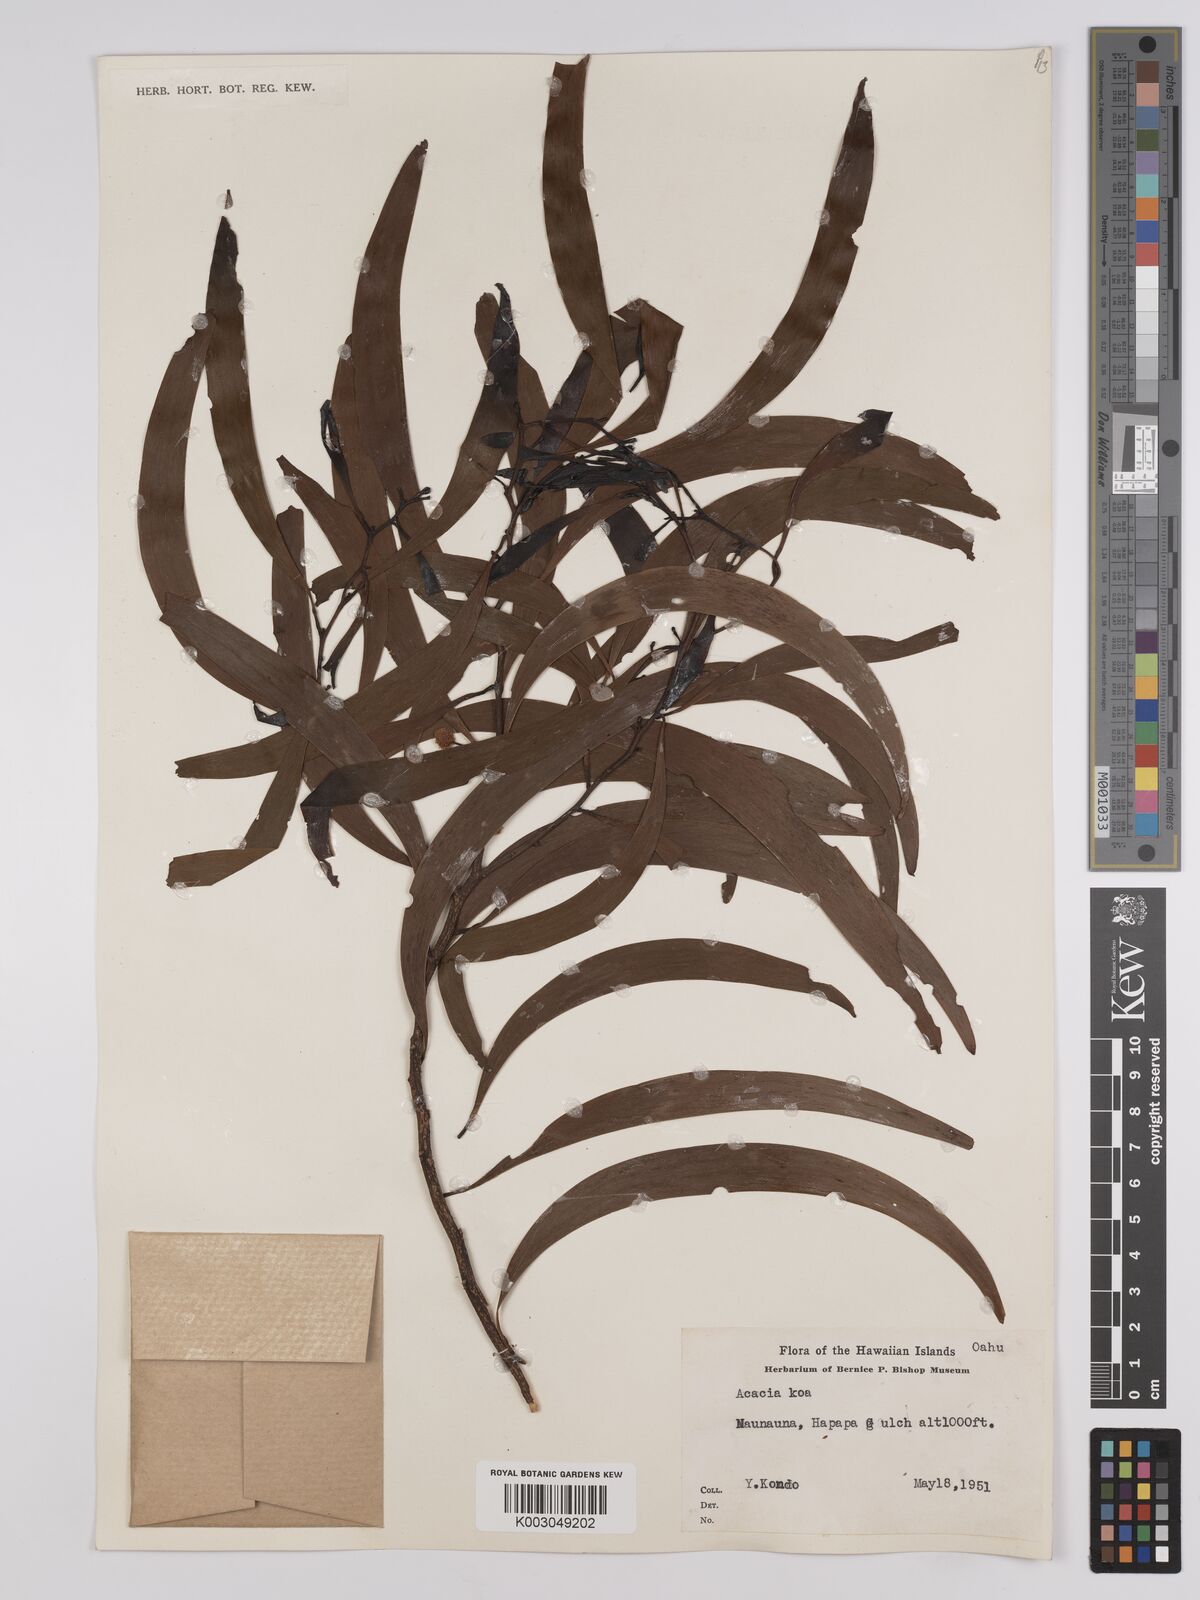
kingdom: Plantae
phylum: Tracheophyta
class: Magnoliopsida
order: Fabales
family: Fabaceae
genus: Acacia
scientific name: Acacia koa
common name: Gray koa
